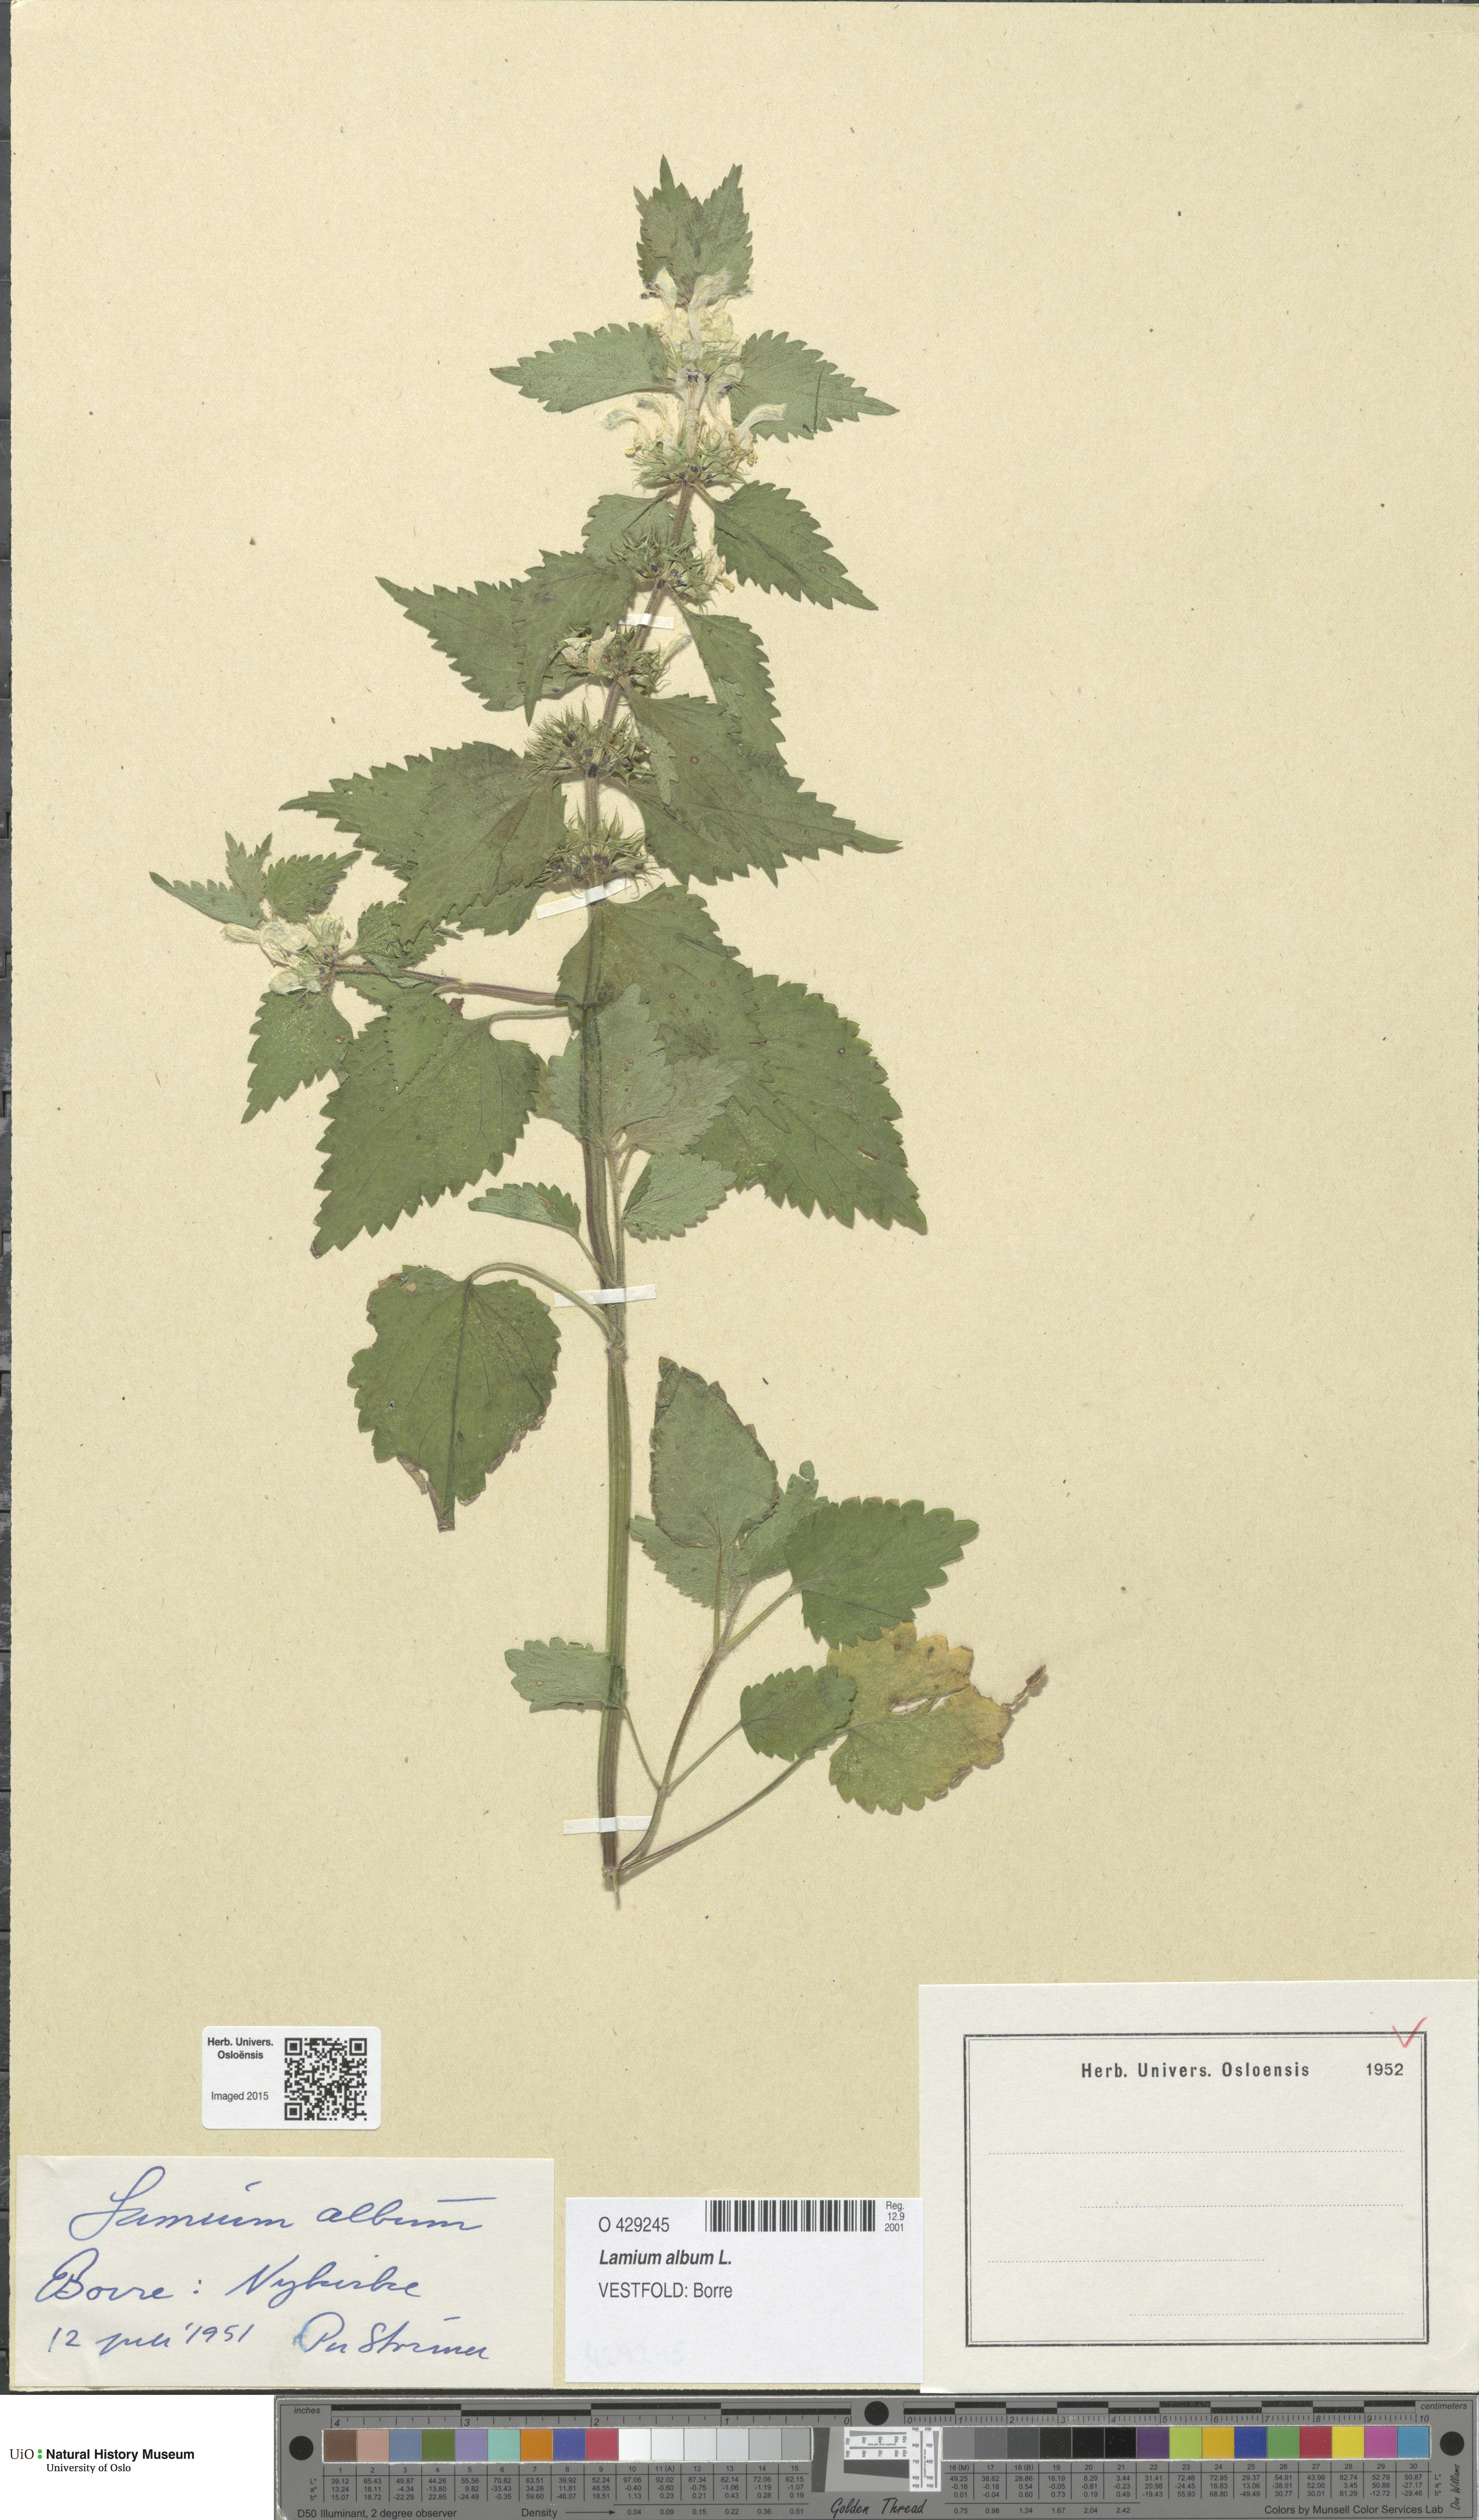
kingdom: Plantae
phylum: Tracheophyta
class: Magnoliopsida
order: Lamiales
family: Lamiaceae
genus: Lamium
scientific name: Lamium album
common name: White dead-nettle
